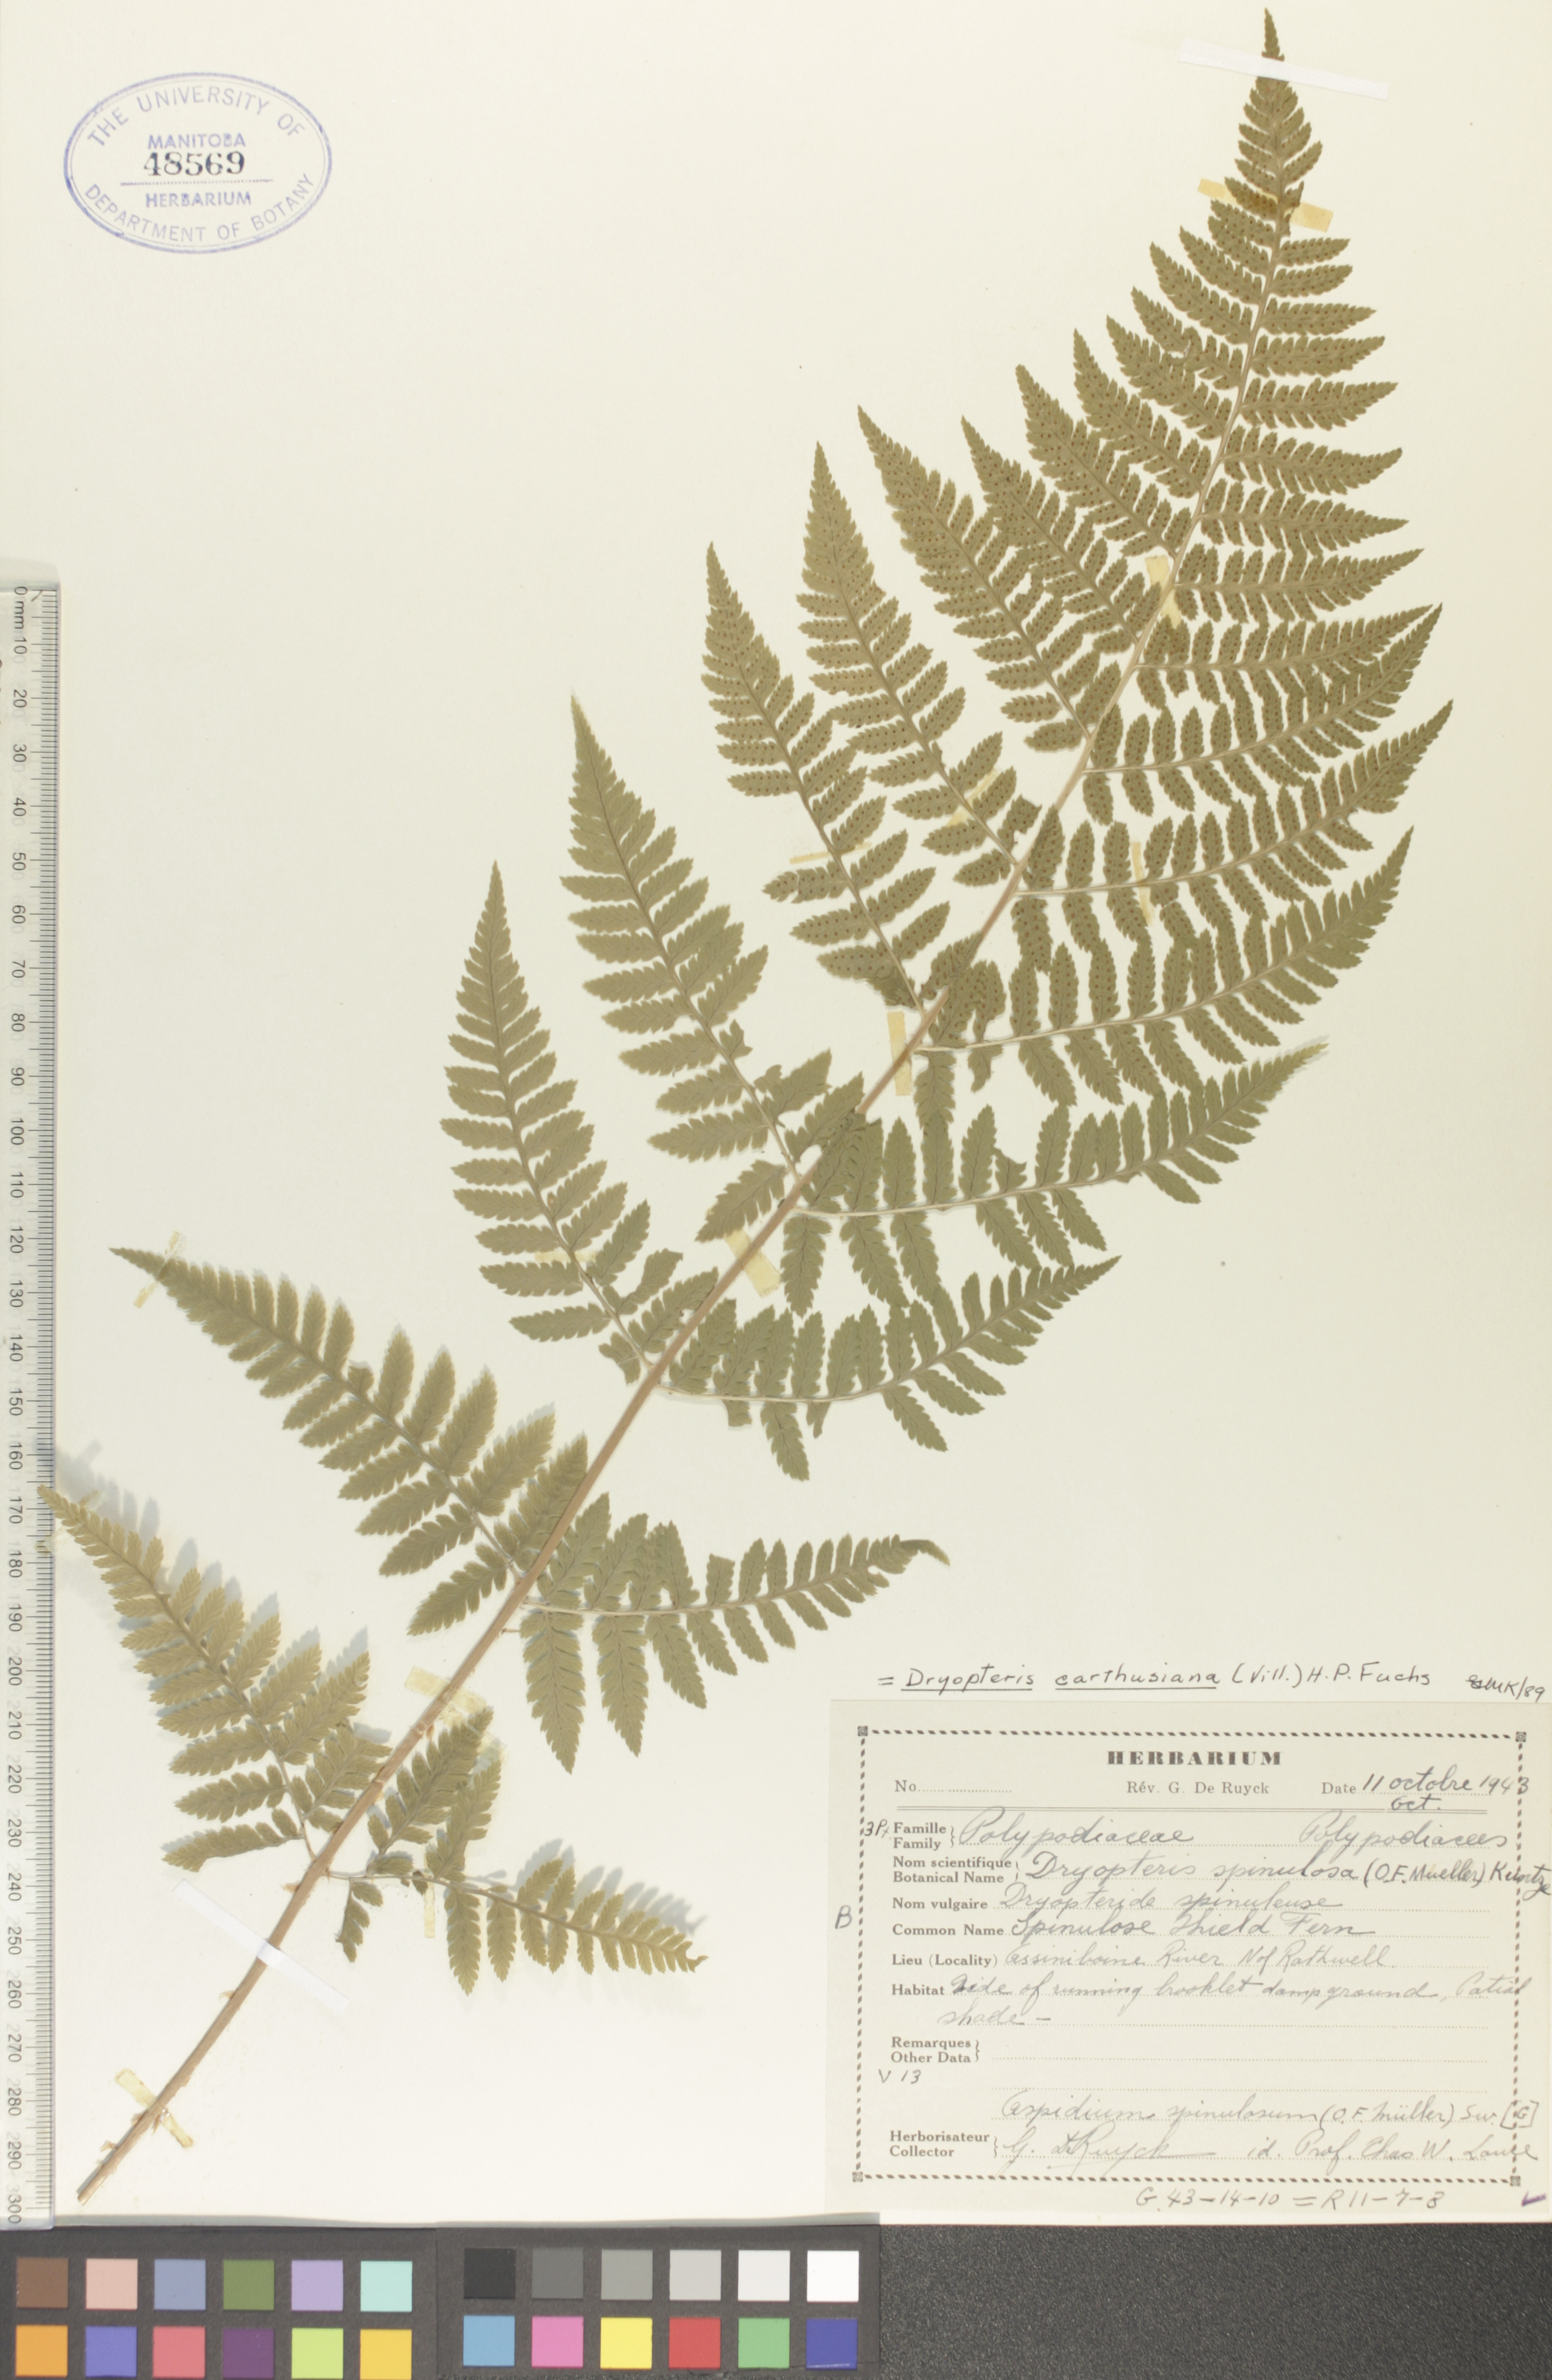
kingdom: Plantae
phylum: Tracheophyta
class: Polypodiopsida
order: Polypodiales
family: Dryopteridaceae
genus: Dryopteris
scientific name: Dryopteris carthusiana
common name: Narrow buckler-fern
